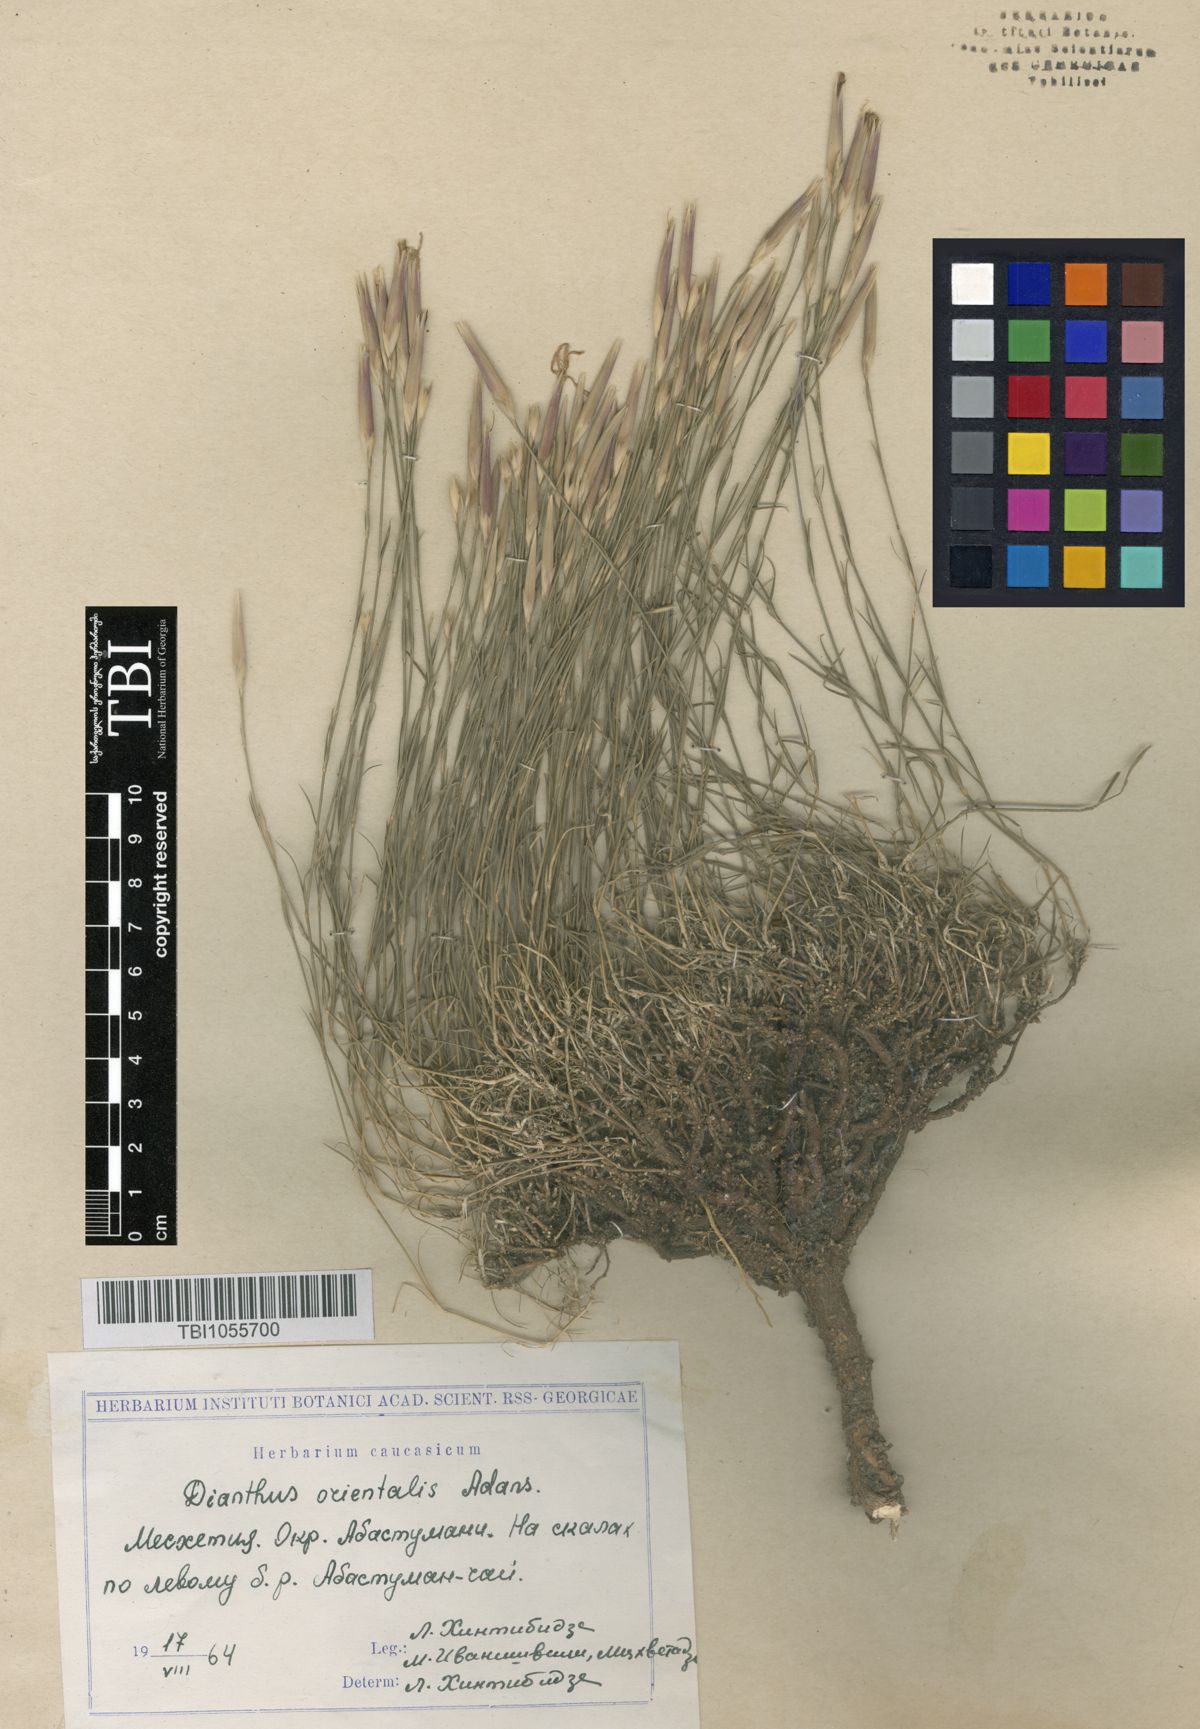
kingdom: Plantae
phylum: Tracheophyta
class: Magnoliopsida
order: Caryophyllales
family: Caryophyllaceae
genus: Dianthus
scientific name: Dianthus orientalis
